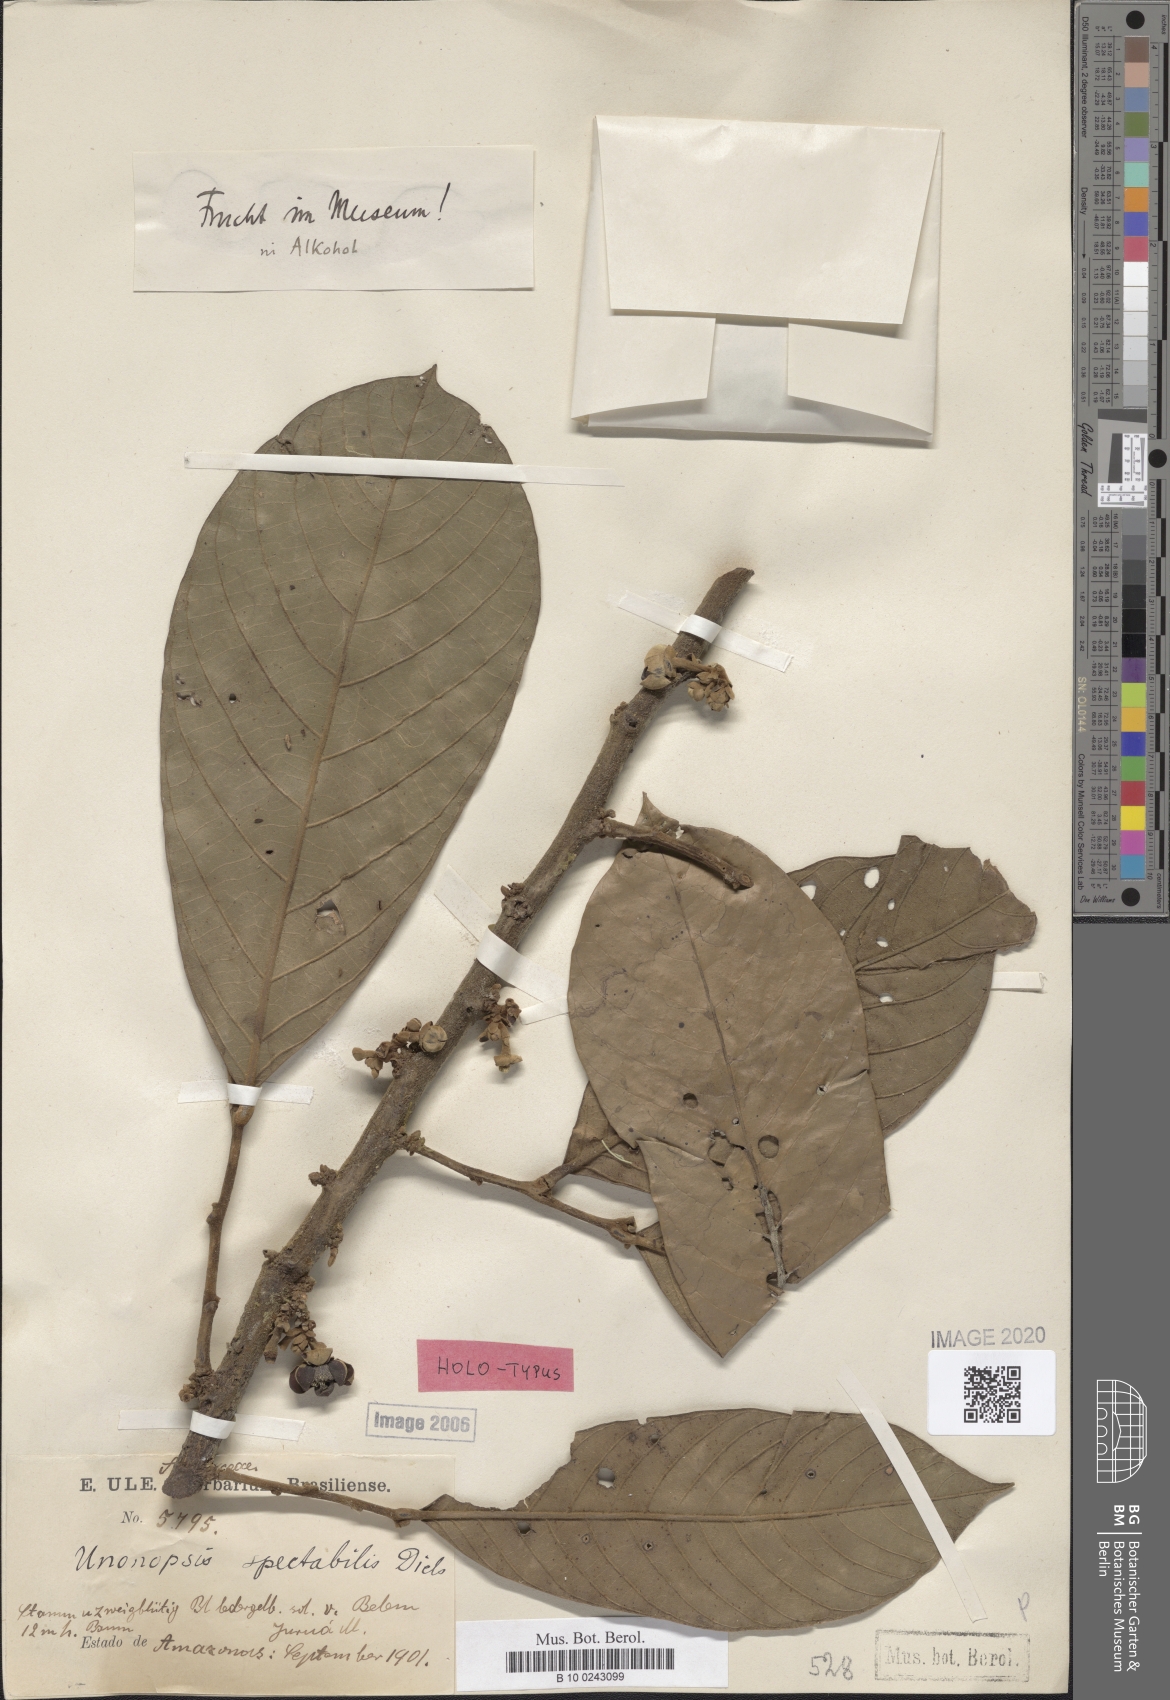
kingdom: Plantae
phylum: Tracheophyta
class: Magnoliopsida
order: Magnoliales
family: Annonaceae
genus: Unonopsis
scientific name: Unonopsis spectabilis
